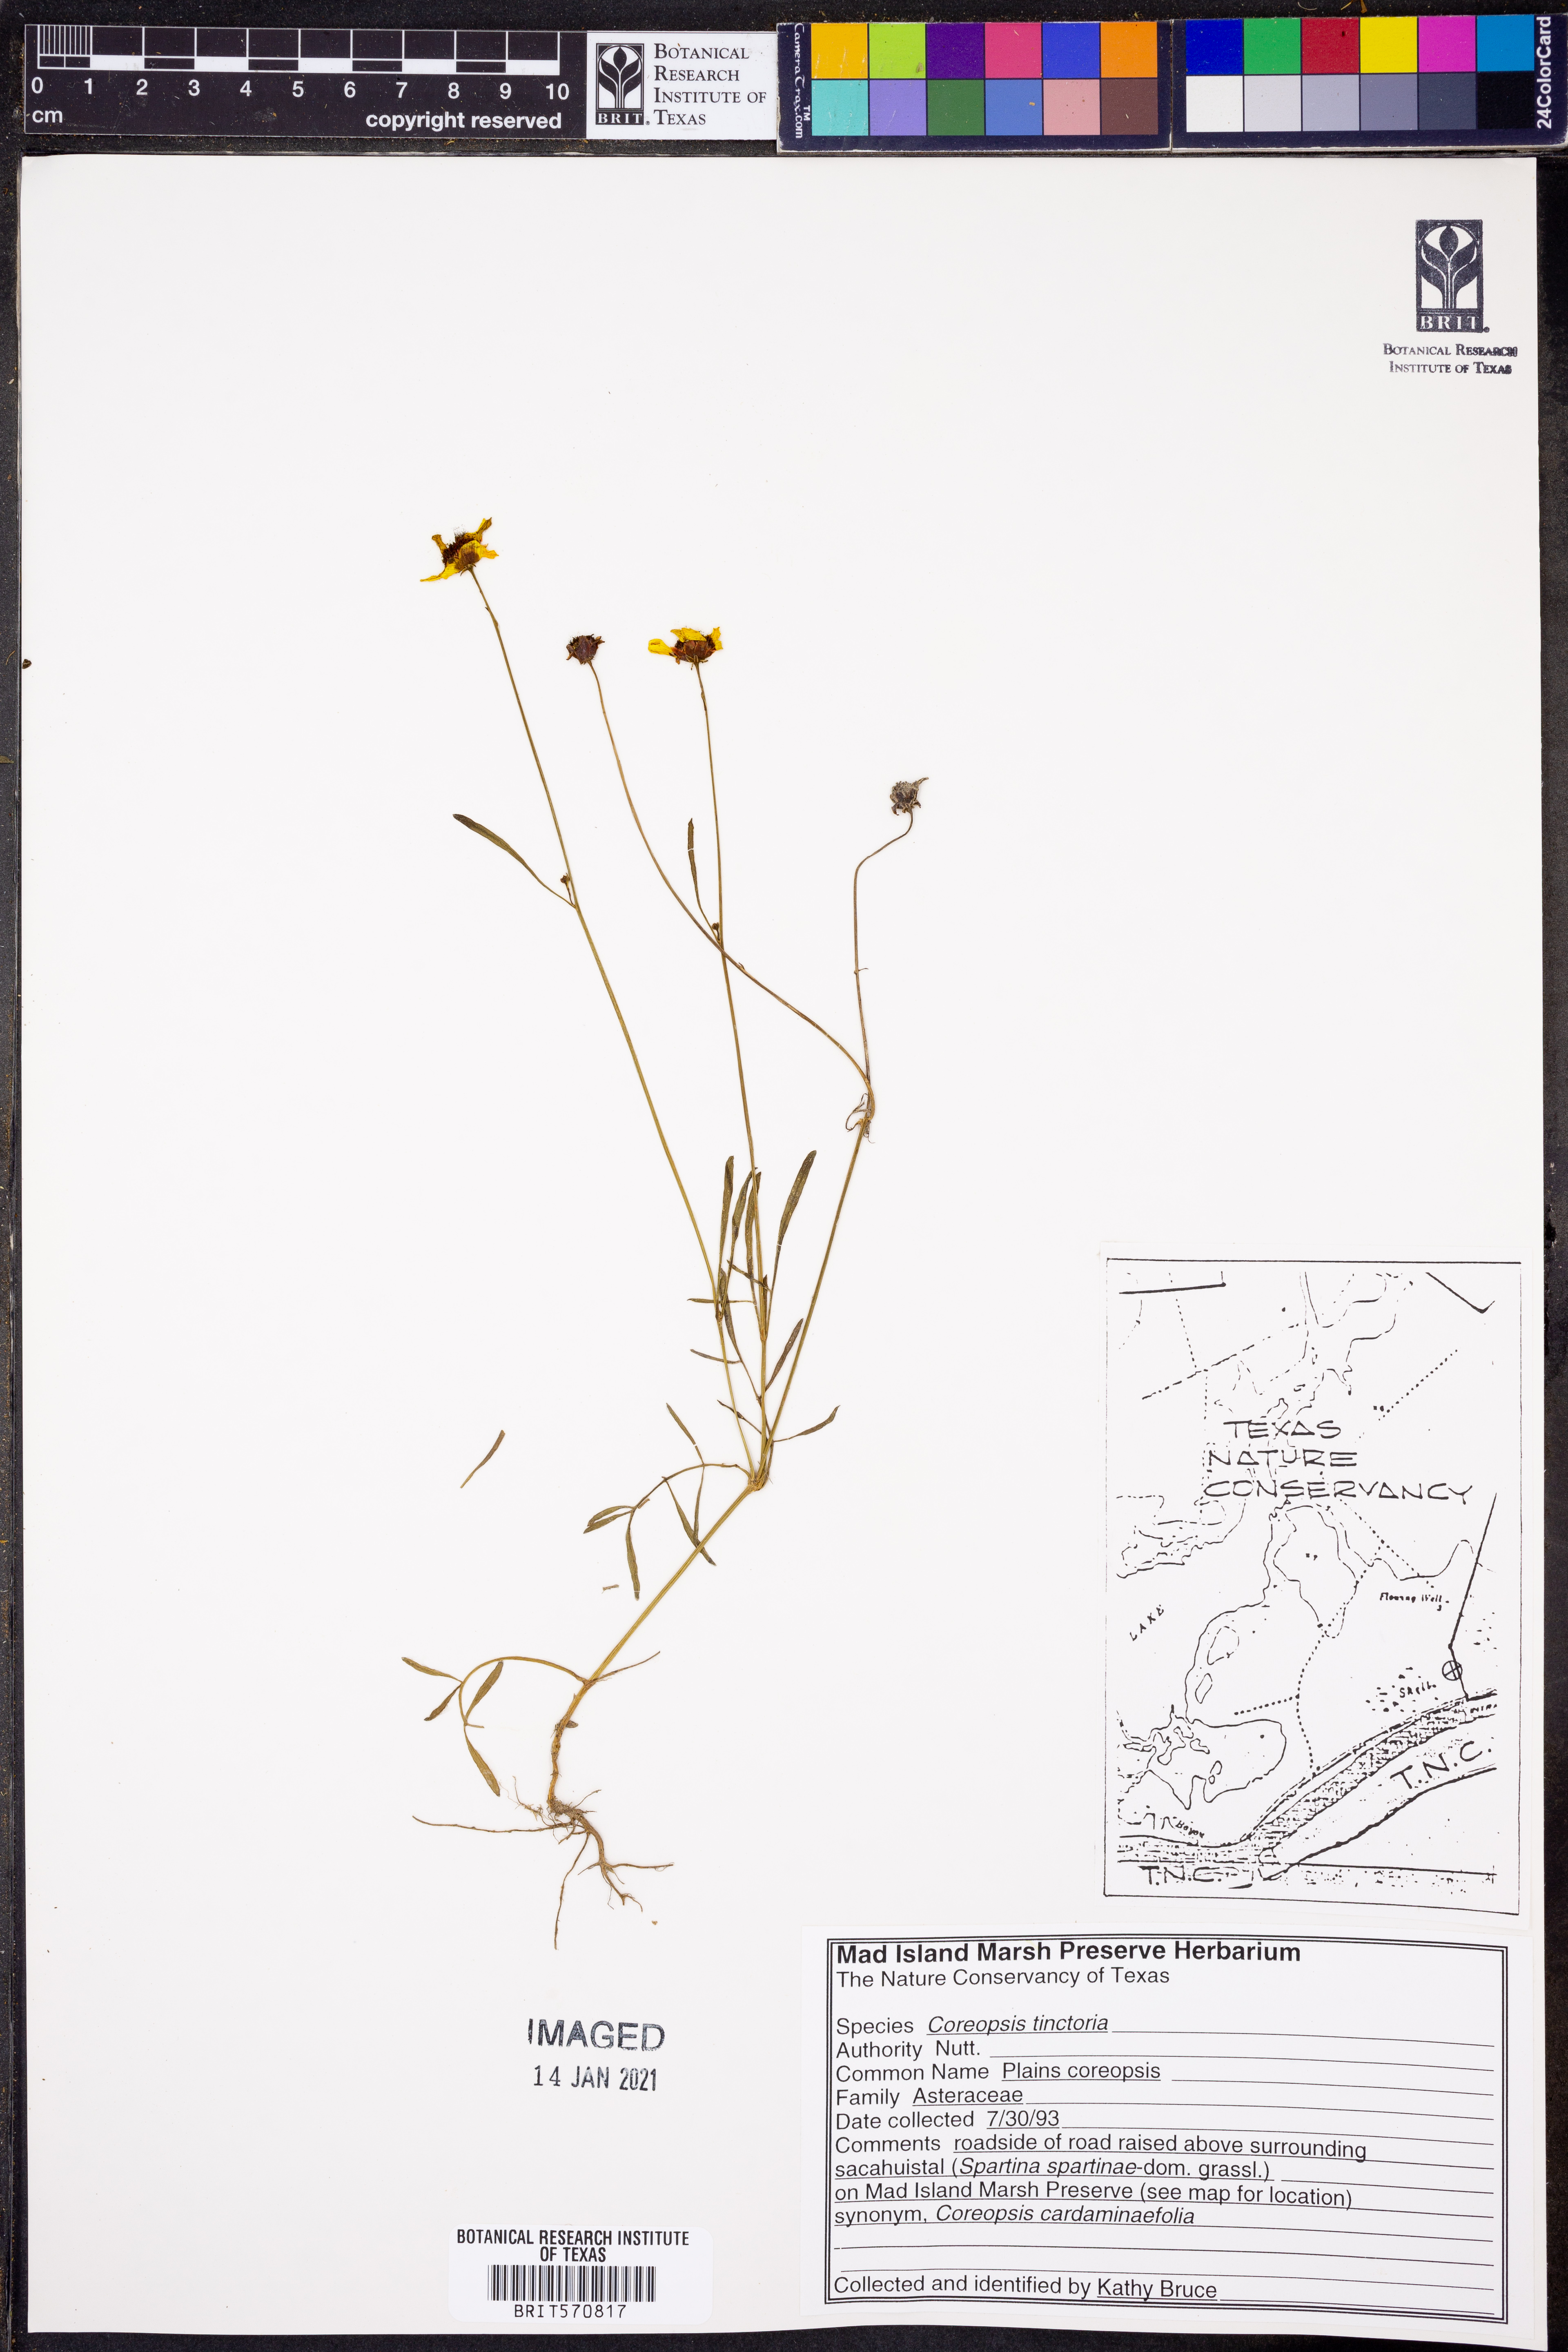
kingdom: Plantae
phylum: Tracheophyta
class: Magnoliopsida
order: Asterales
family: Asteraceae
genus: Coreopsis
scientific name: Coreopsis tinctoria
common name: Garden tickseed
